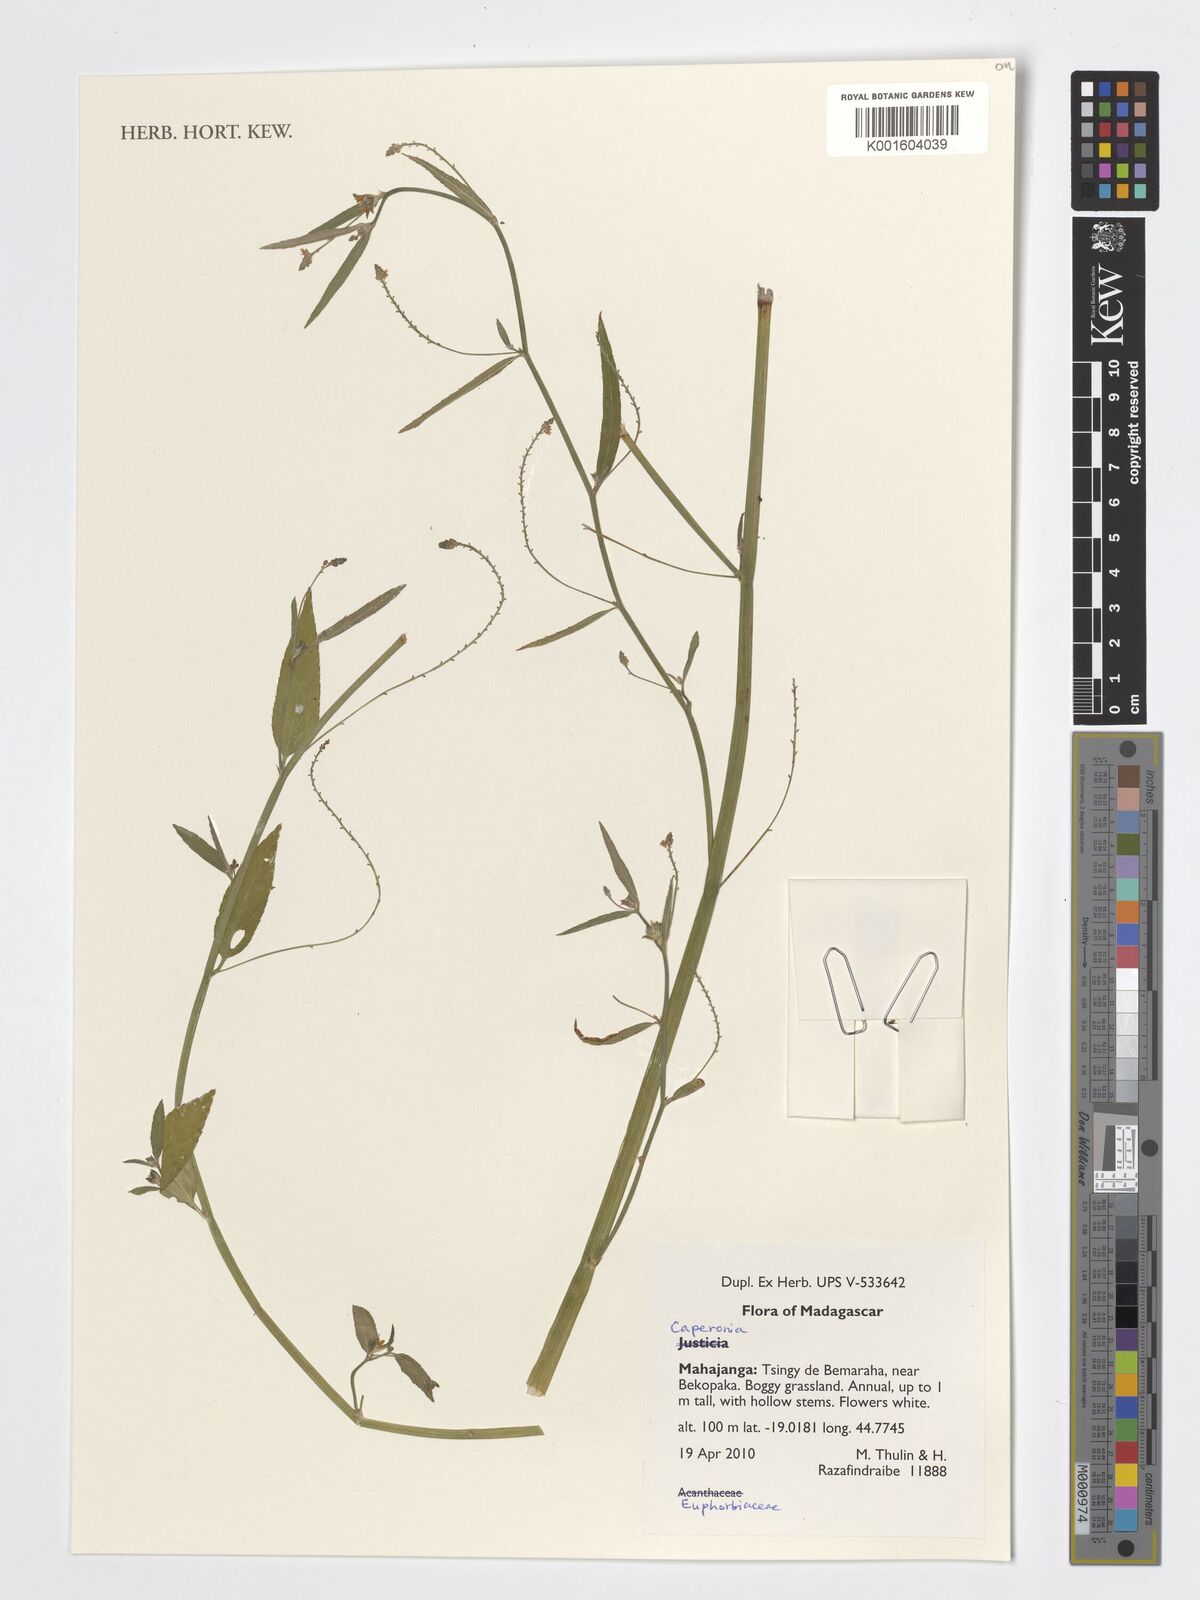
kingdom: Plantae
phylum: Tracheophyta
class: Magnoliopsida
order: Malpighiales
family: Euphorbiaceae
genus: Caperonia
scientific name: Caperonia
